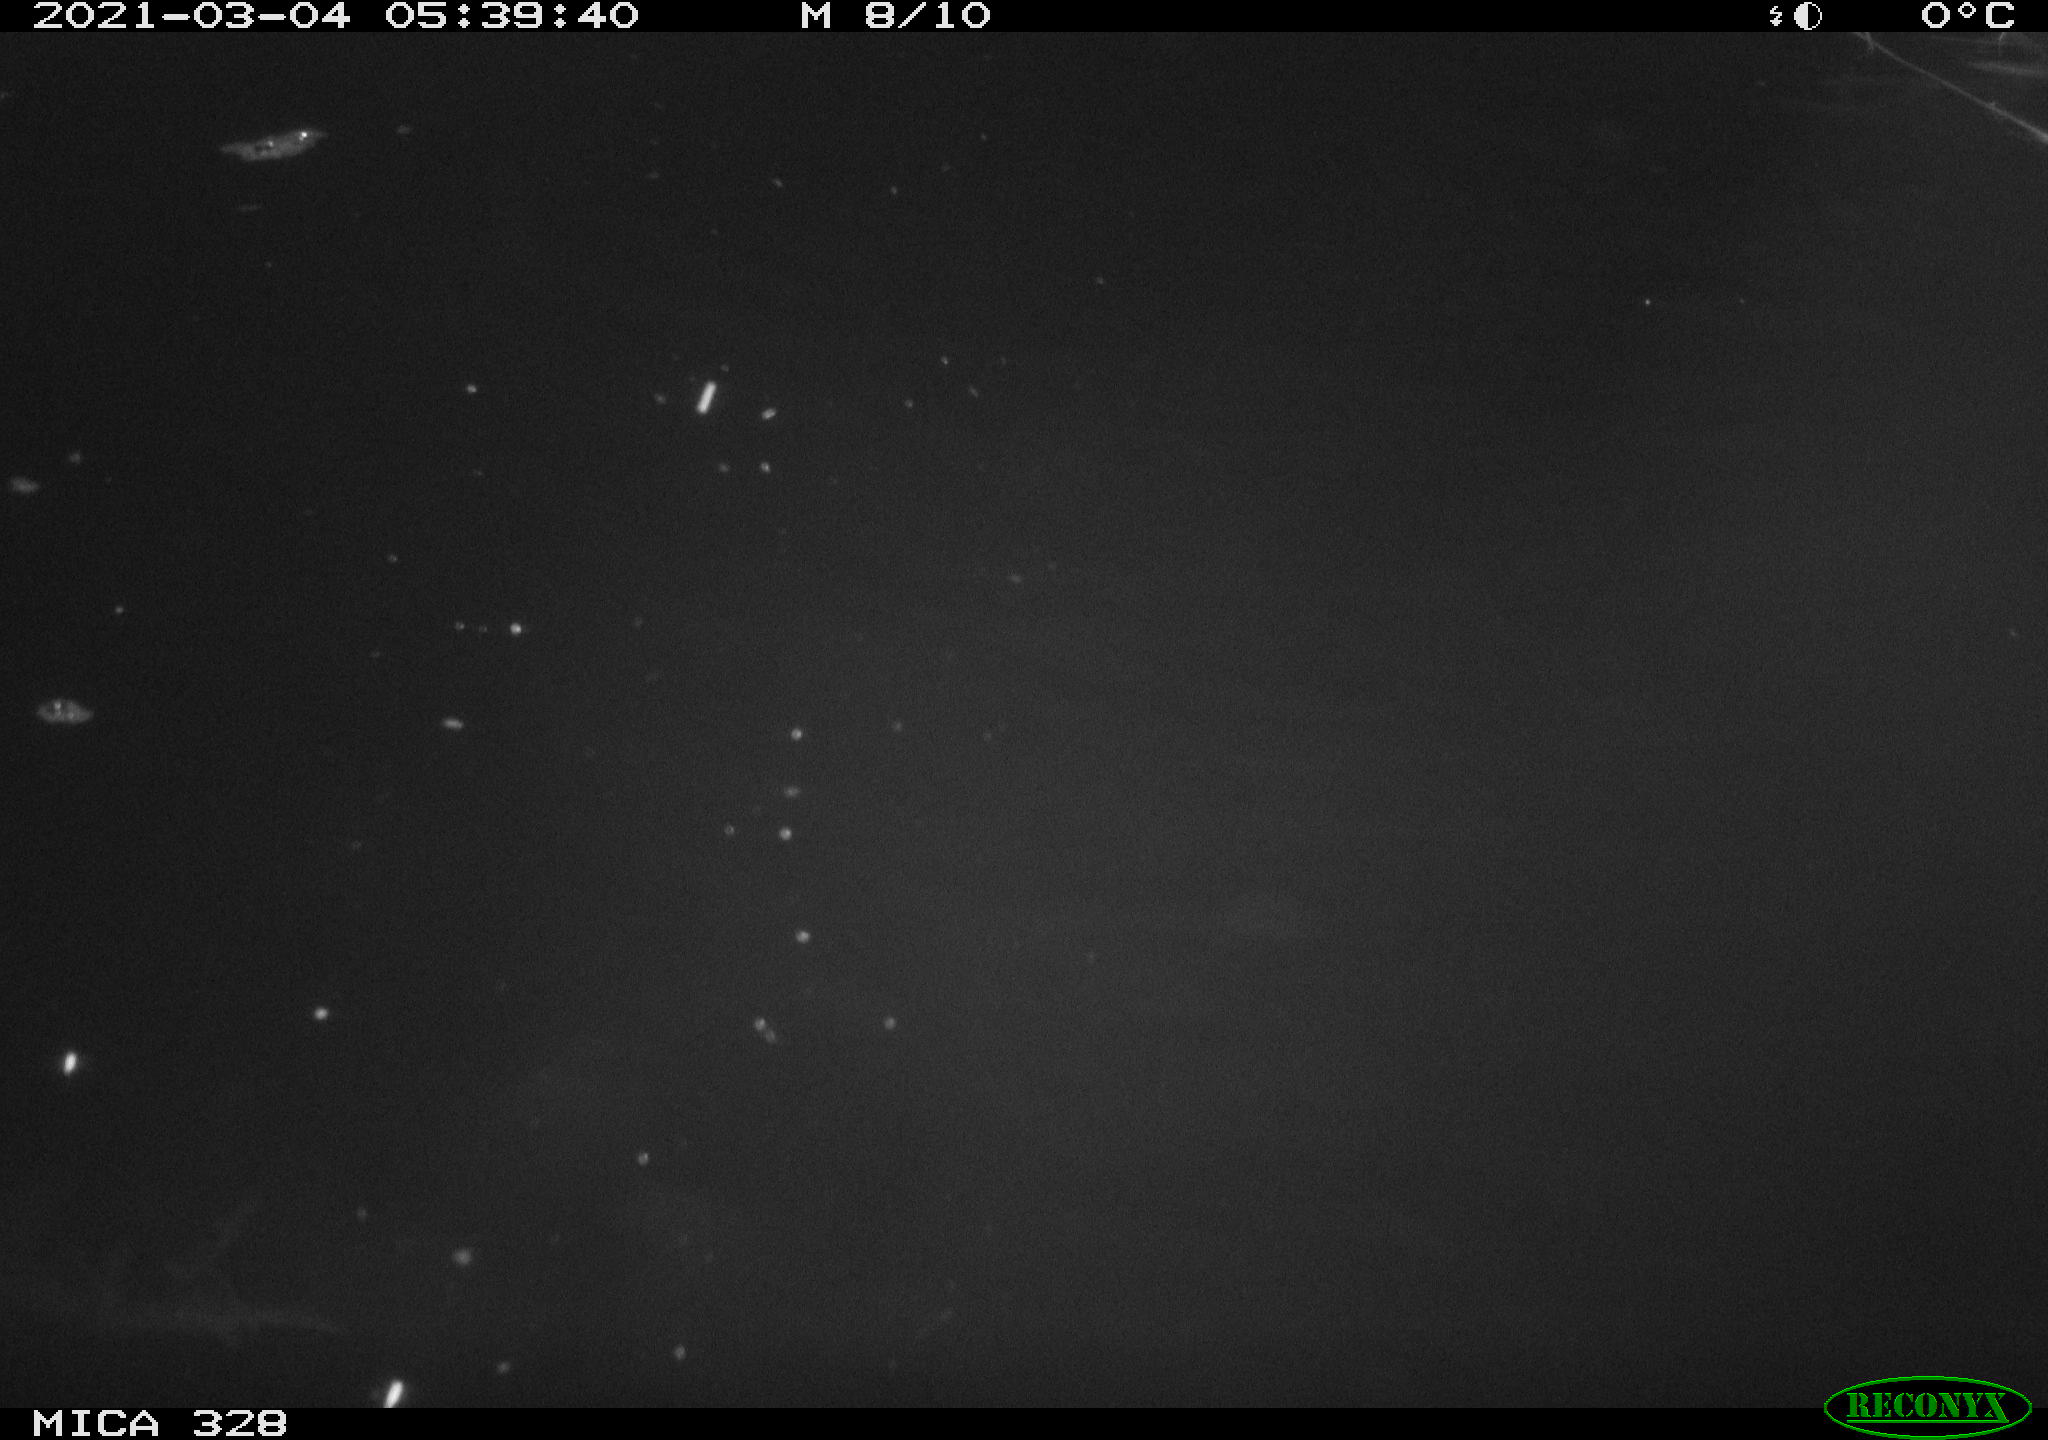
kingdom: Animalia
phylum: Chordata
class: Mammalia
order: Rodentia
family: Cricetidae
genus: Ondatra
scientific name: Ondatra zibethicus
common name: Muskrat
